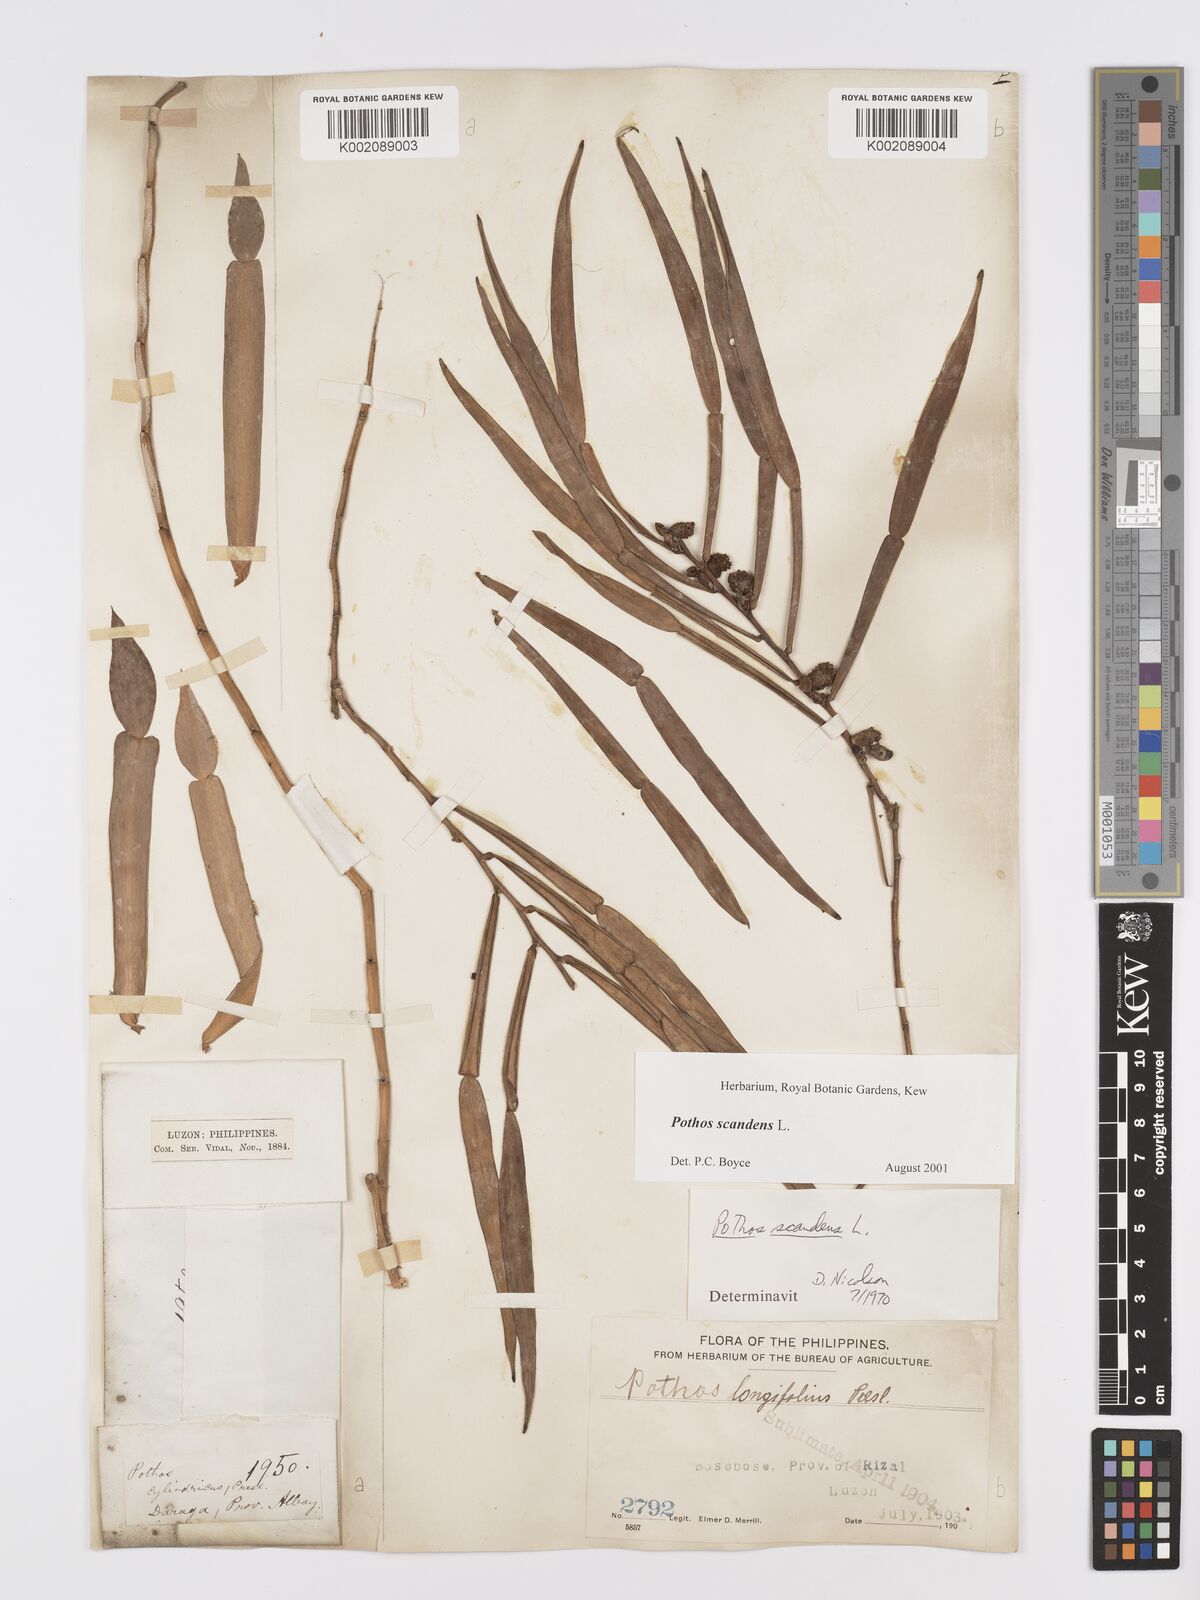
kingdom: Plantae
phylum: Tracheophyta
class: Liliopsida
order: Alismatales
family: Araceae
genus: Pothos
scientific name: Pothos scandens
